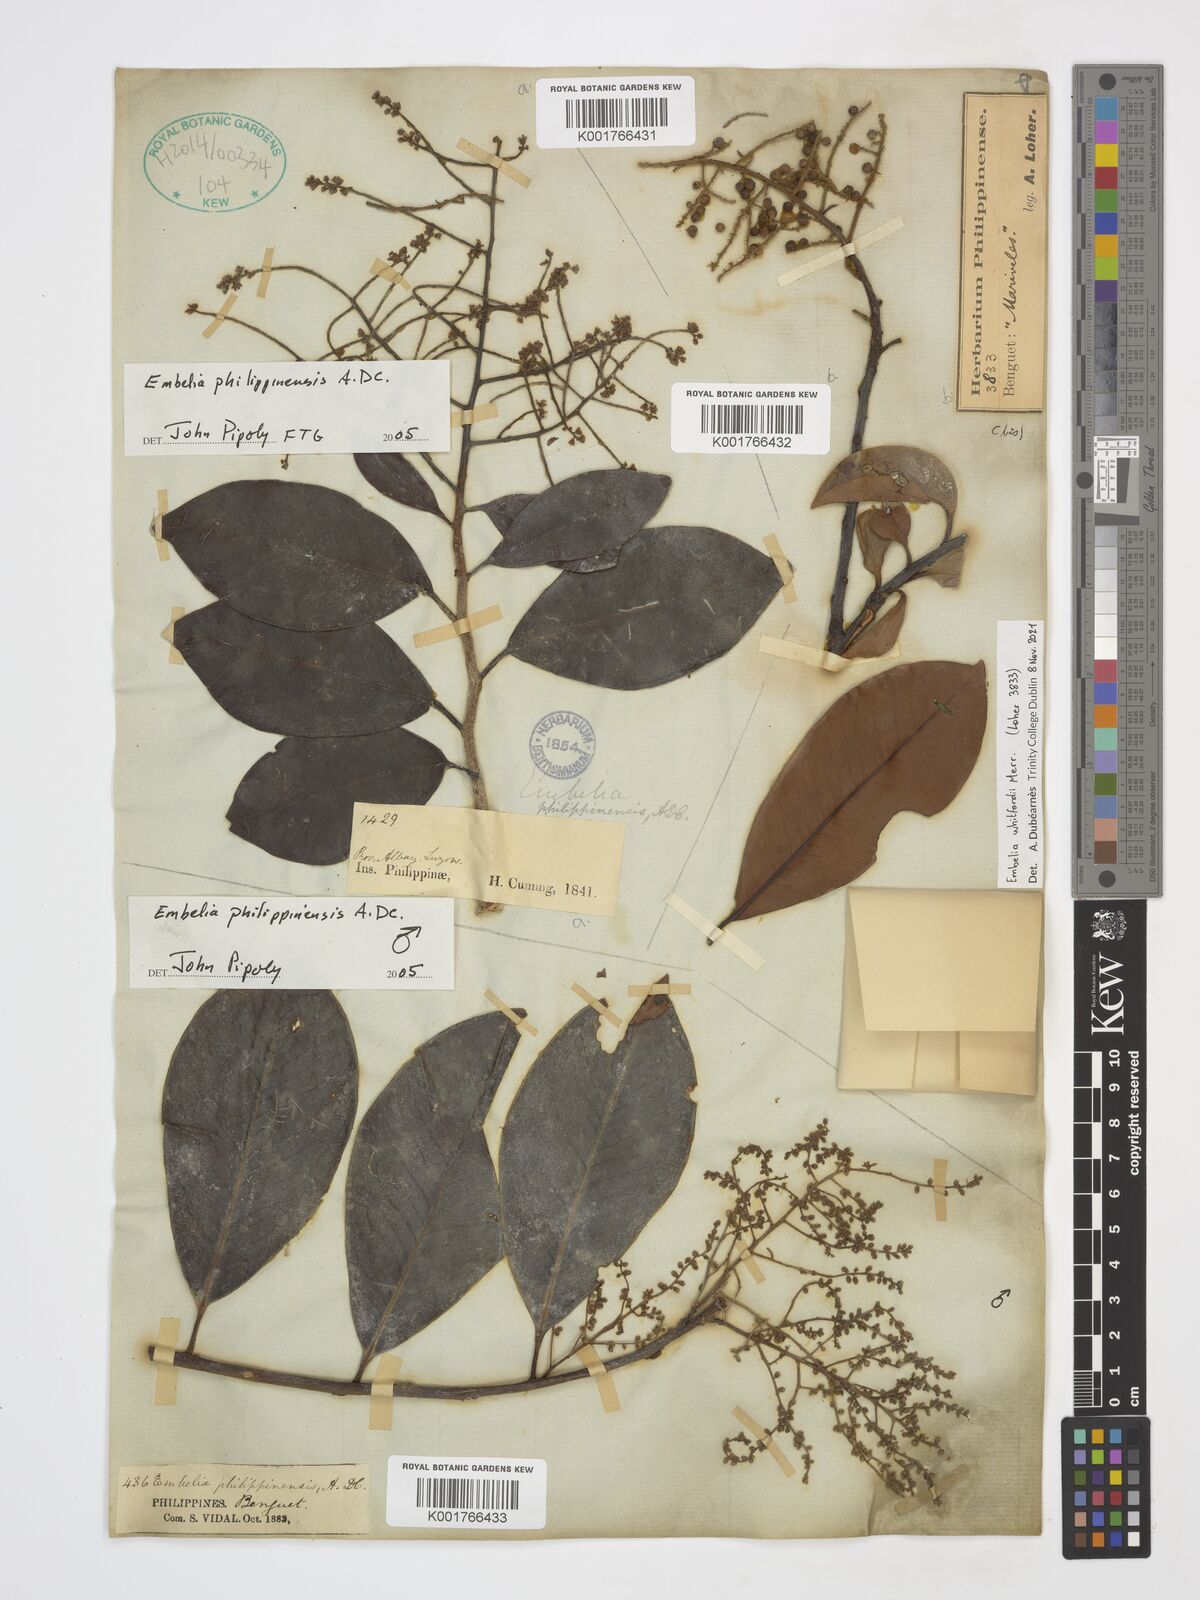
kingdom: Plantae
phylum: Tracheophyta
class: Magnoliopsida
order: Ericales
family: Primulaceae
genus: Embelia
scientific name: Embelia philippinensis
